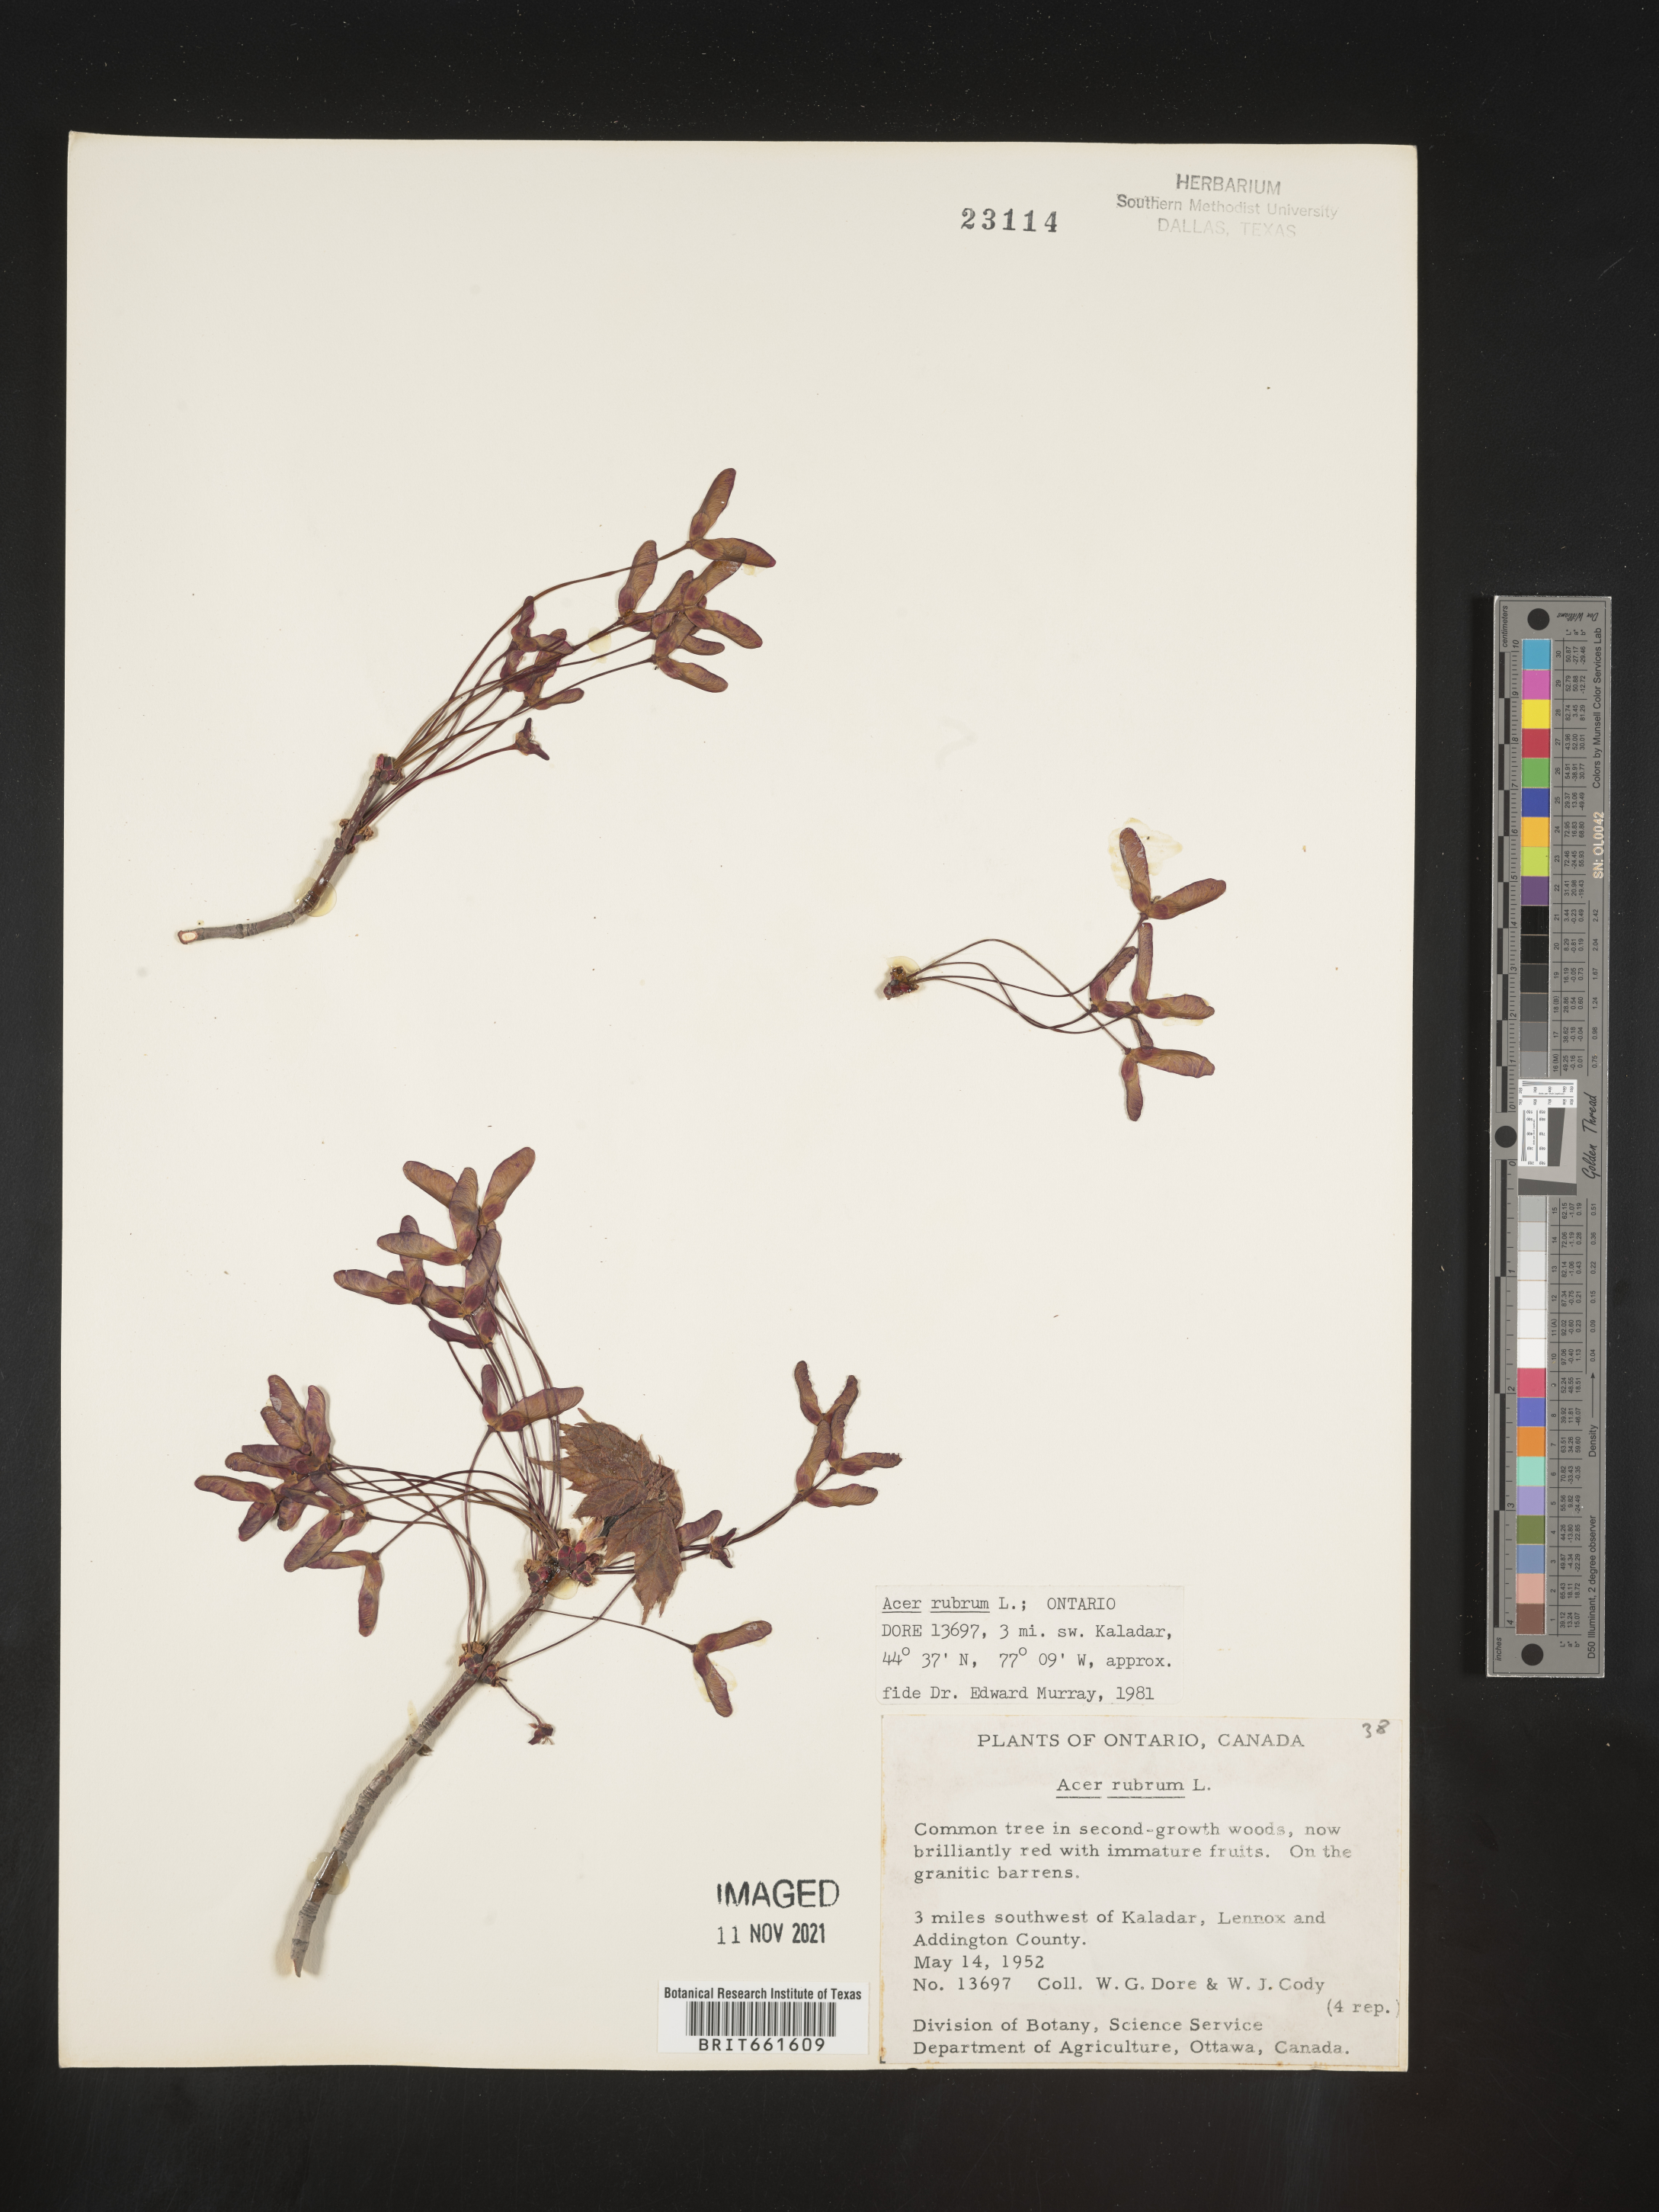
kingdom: Plantae
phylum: Tracheophyta
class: Magnoliopsida
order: Sapindales
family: Sapindaceae
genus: Acer
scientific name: Acer rubrum
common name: Red maple
